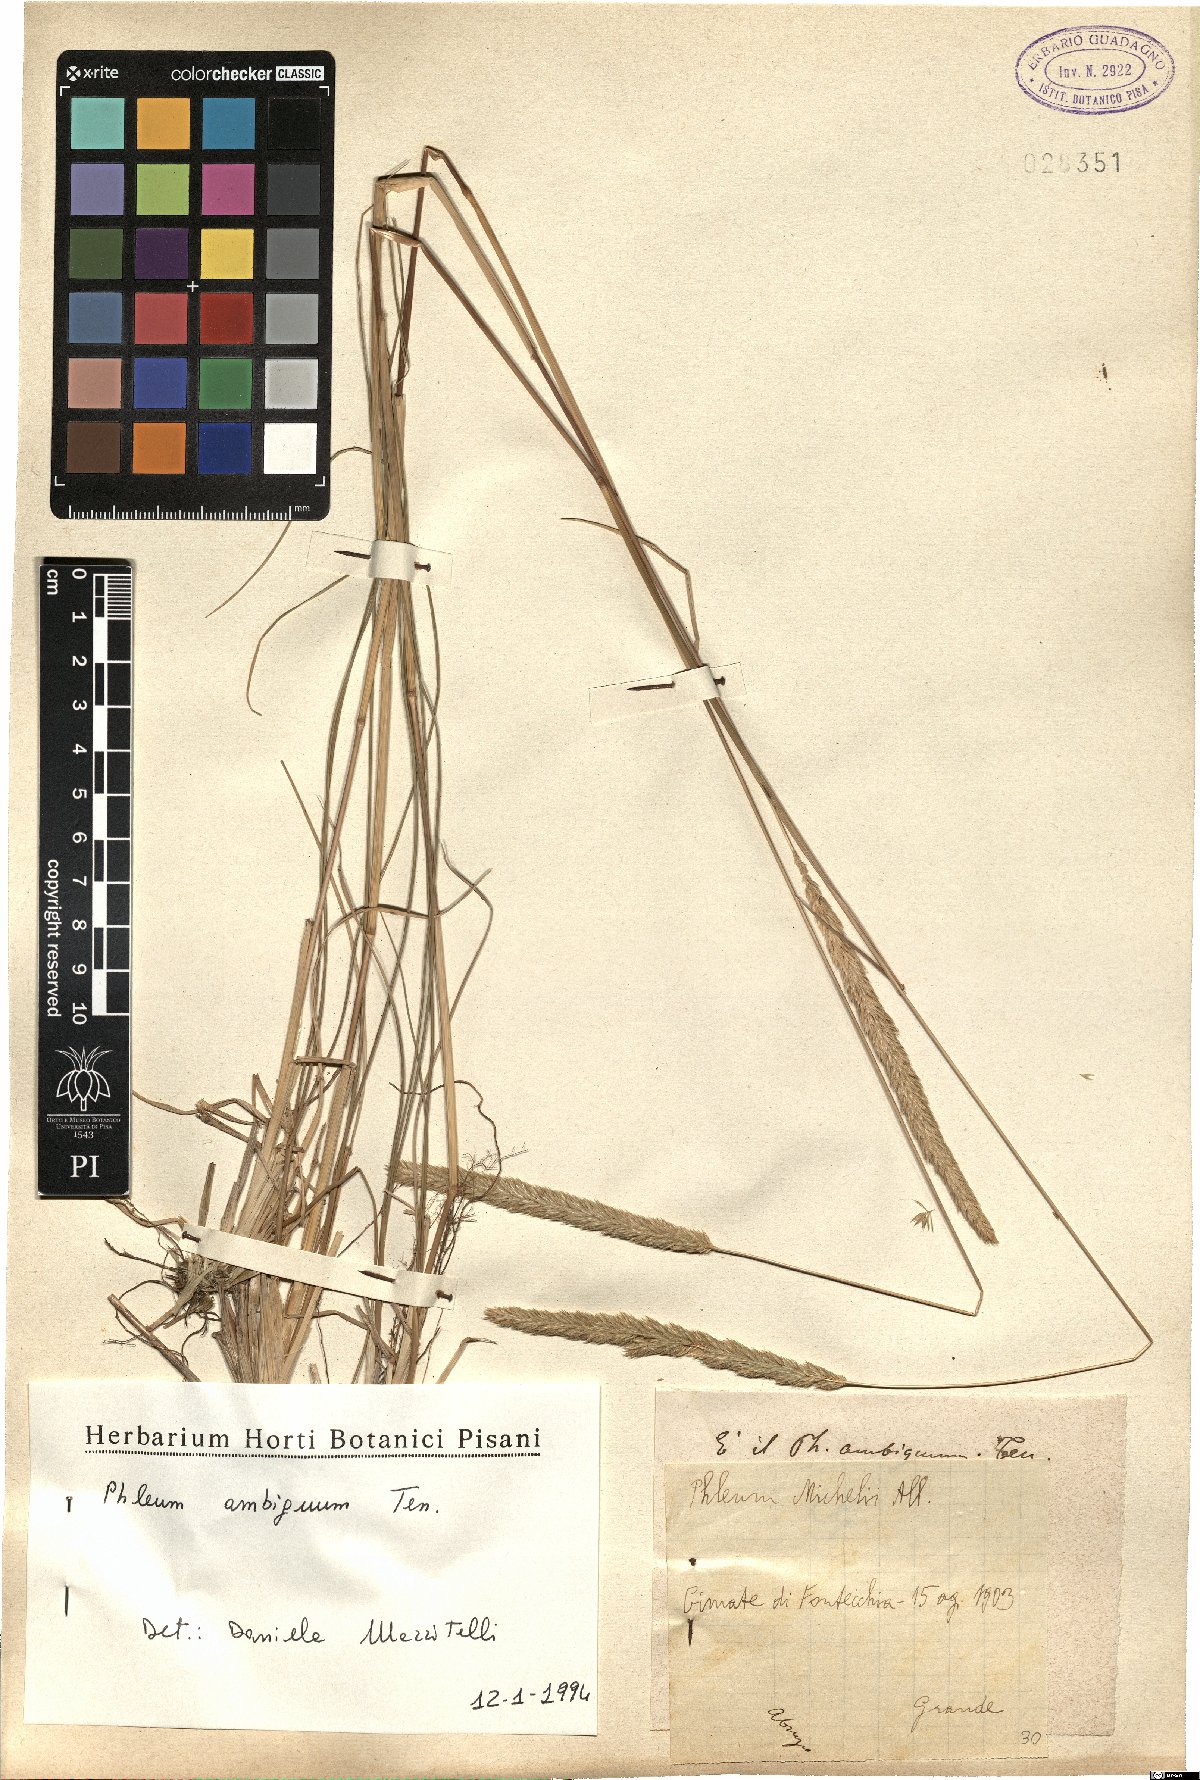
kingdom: Plantae
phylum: Tracheophyta
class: Liliopsida
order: Poales
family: Poaceae
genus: Phleum
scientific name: Phleum hirsutum
